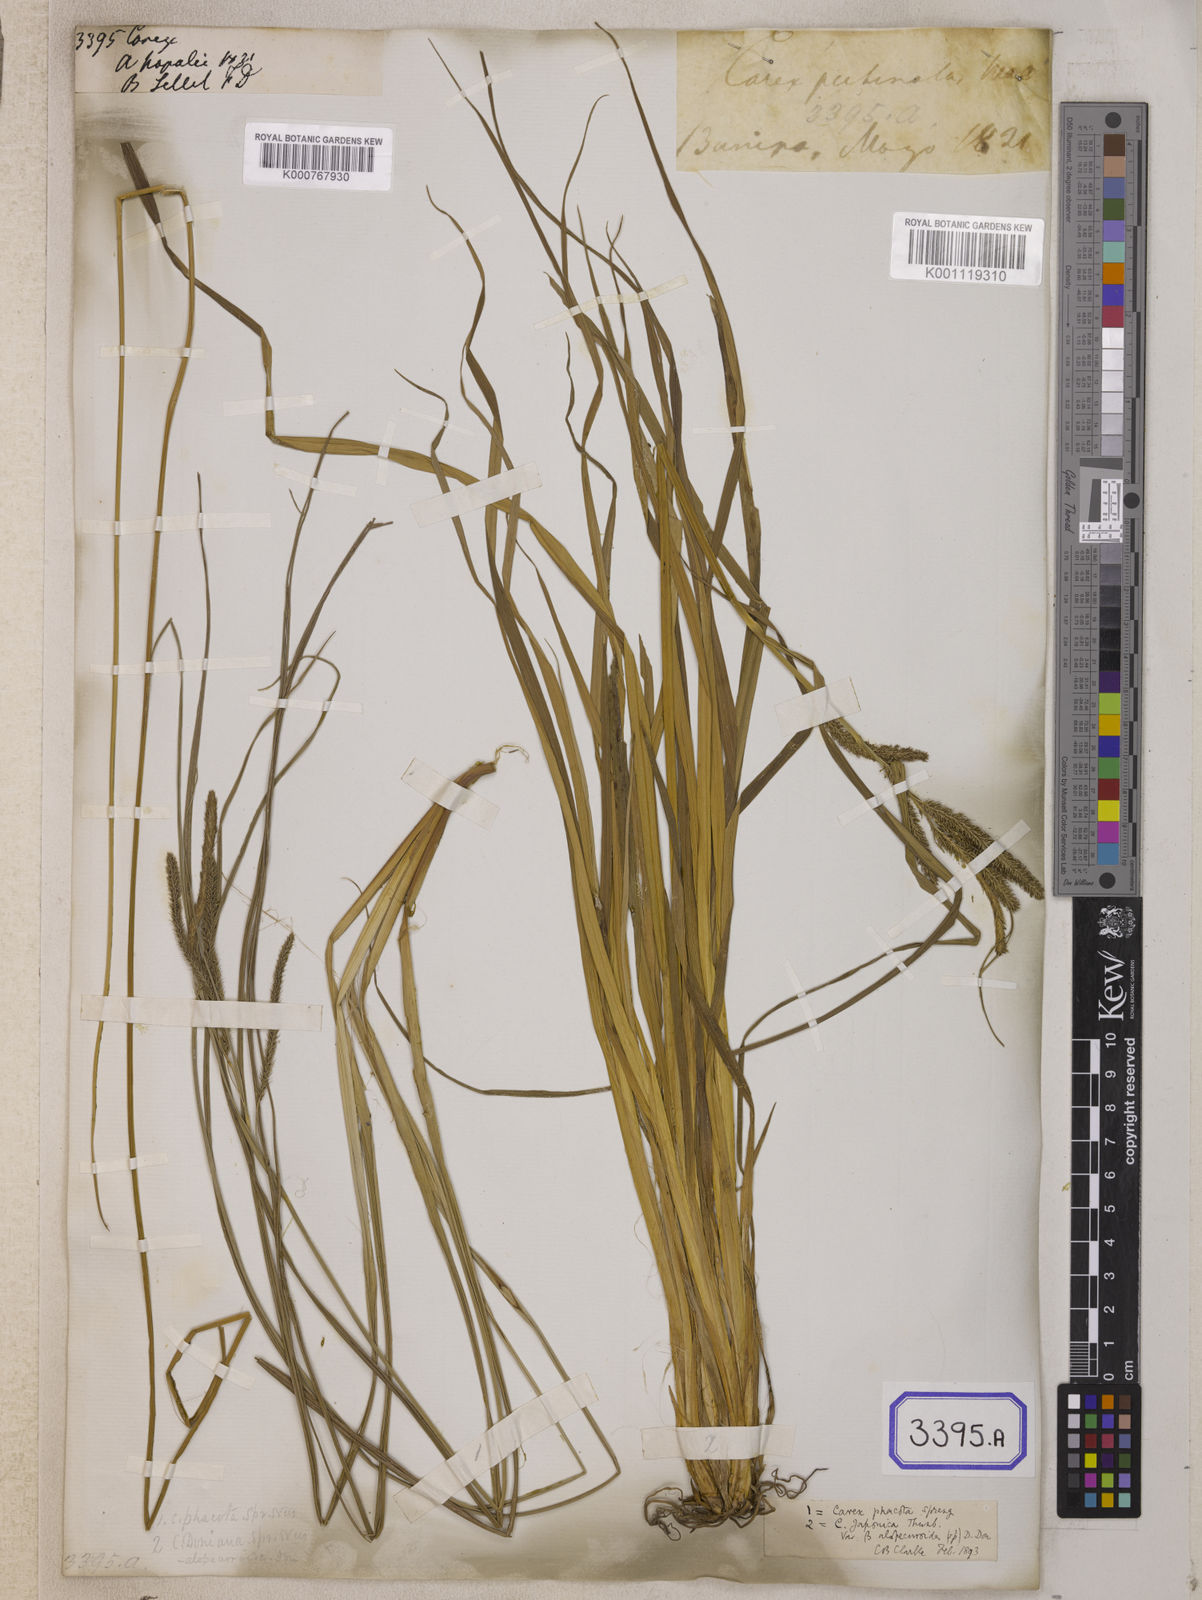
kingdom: Plantae
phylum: Tracheophyta
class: Liliopsida
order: Poales
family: Cyperaceae
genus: Carex
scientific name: Carex
